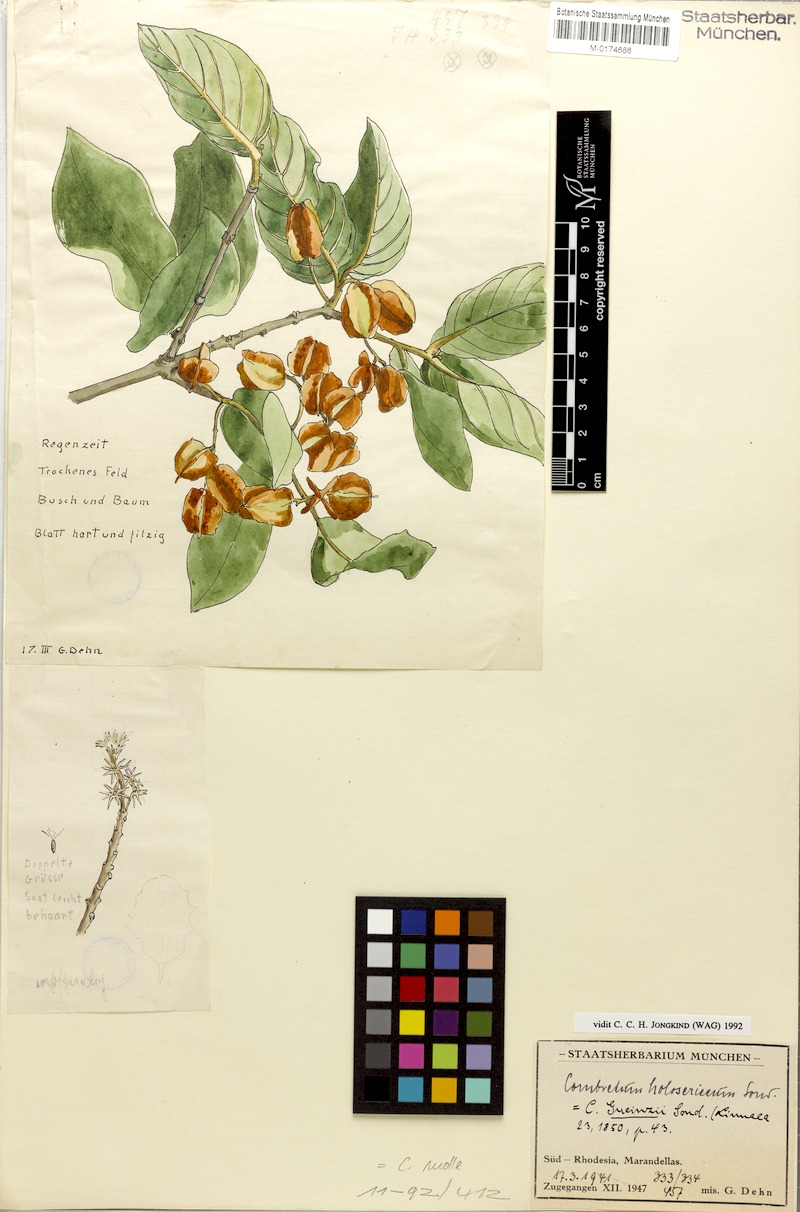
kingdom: Plantae
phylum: Tracheophyta
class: Magnoliopsida
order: Myrtales
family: Combretaceae
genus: Combretum
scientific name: Combretum molle
